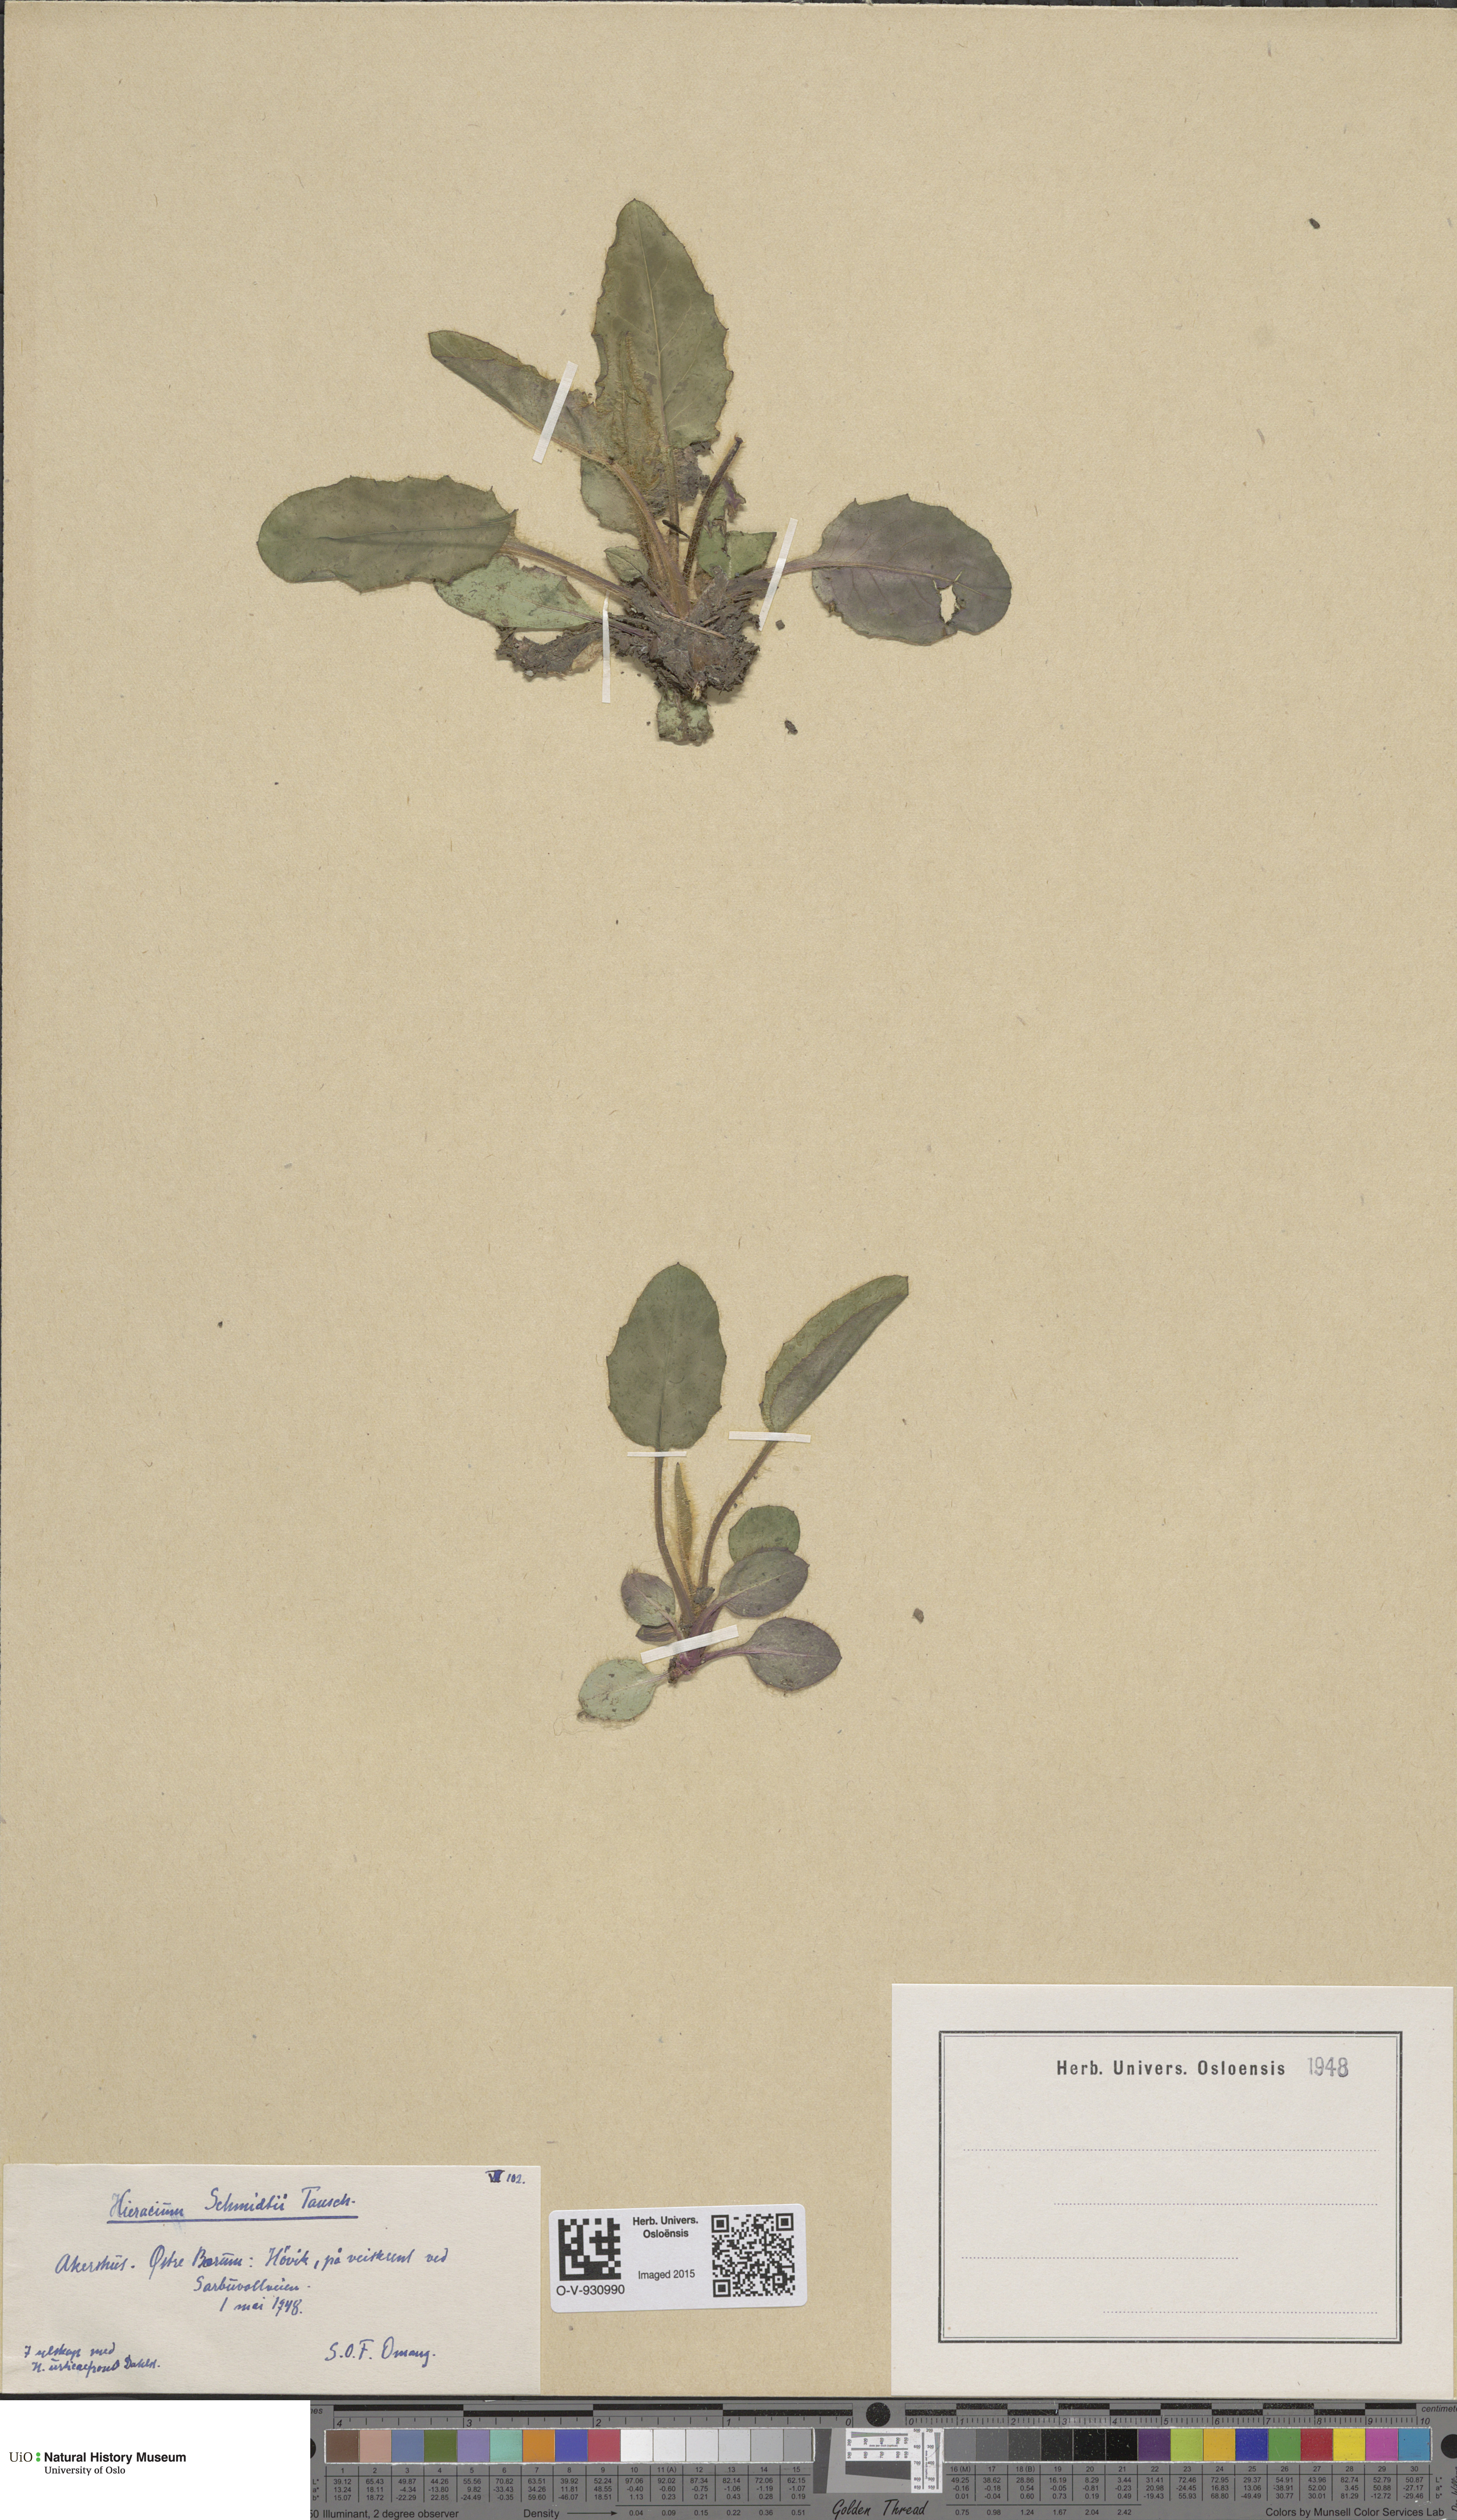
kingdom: Plantae
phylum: Tracheophyta
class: Magnoliopsida
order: Asterales
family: Asteraceae
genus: Hieracium
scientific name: Hieracium schmidtii
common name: Schmidt's hawkweed
